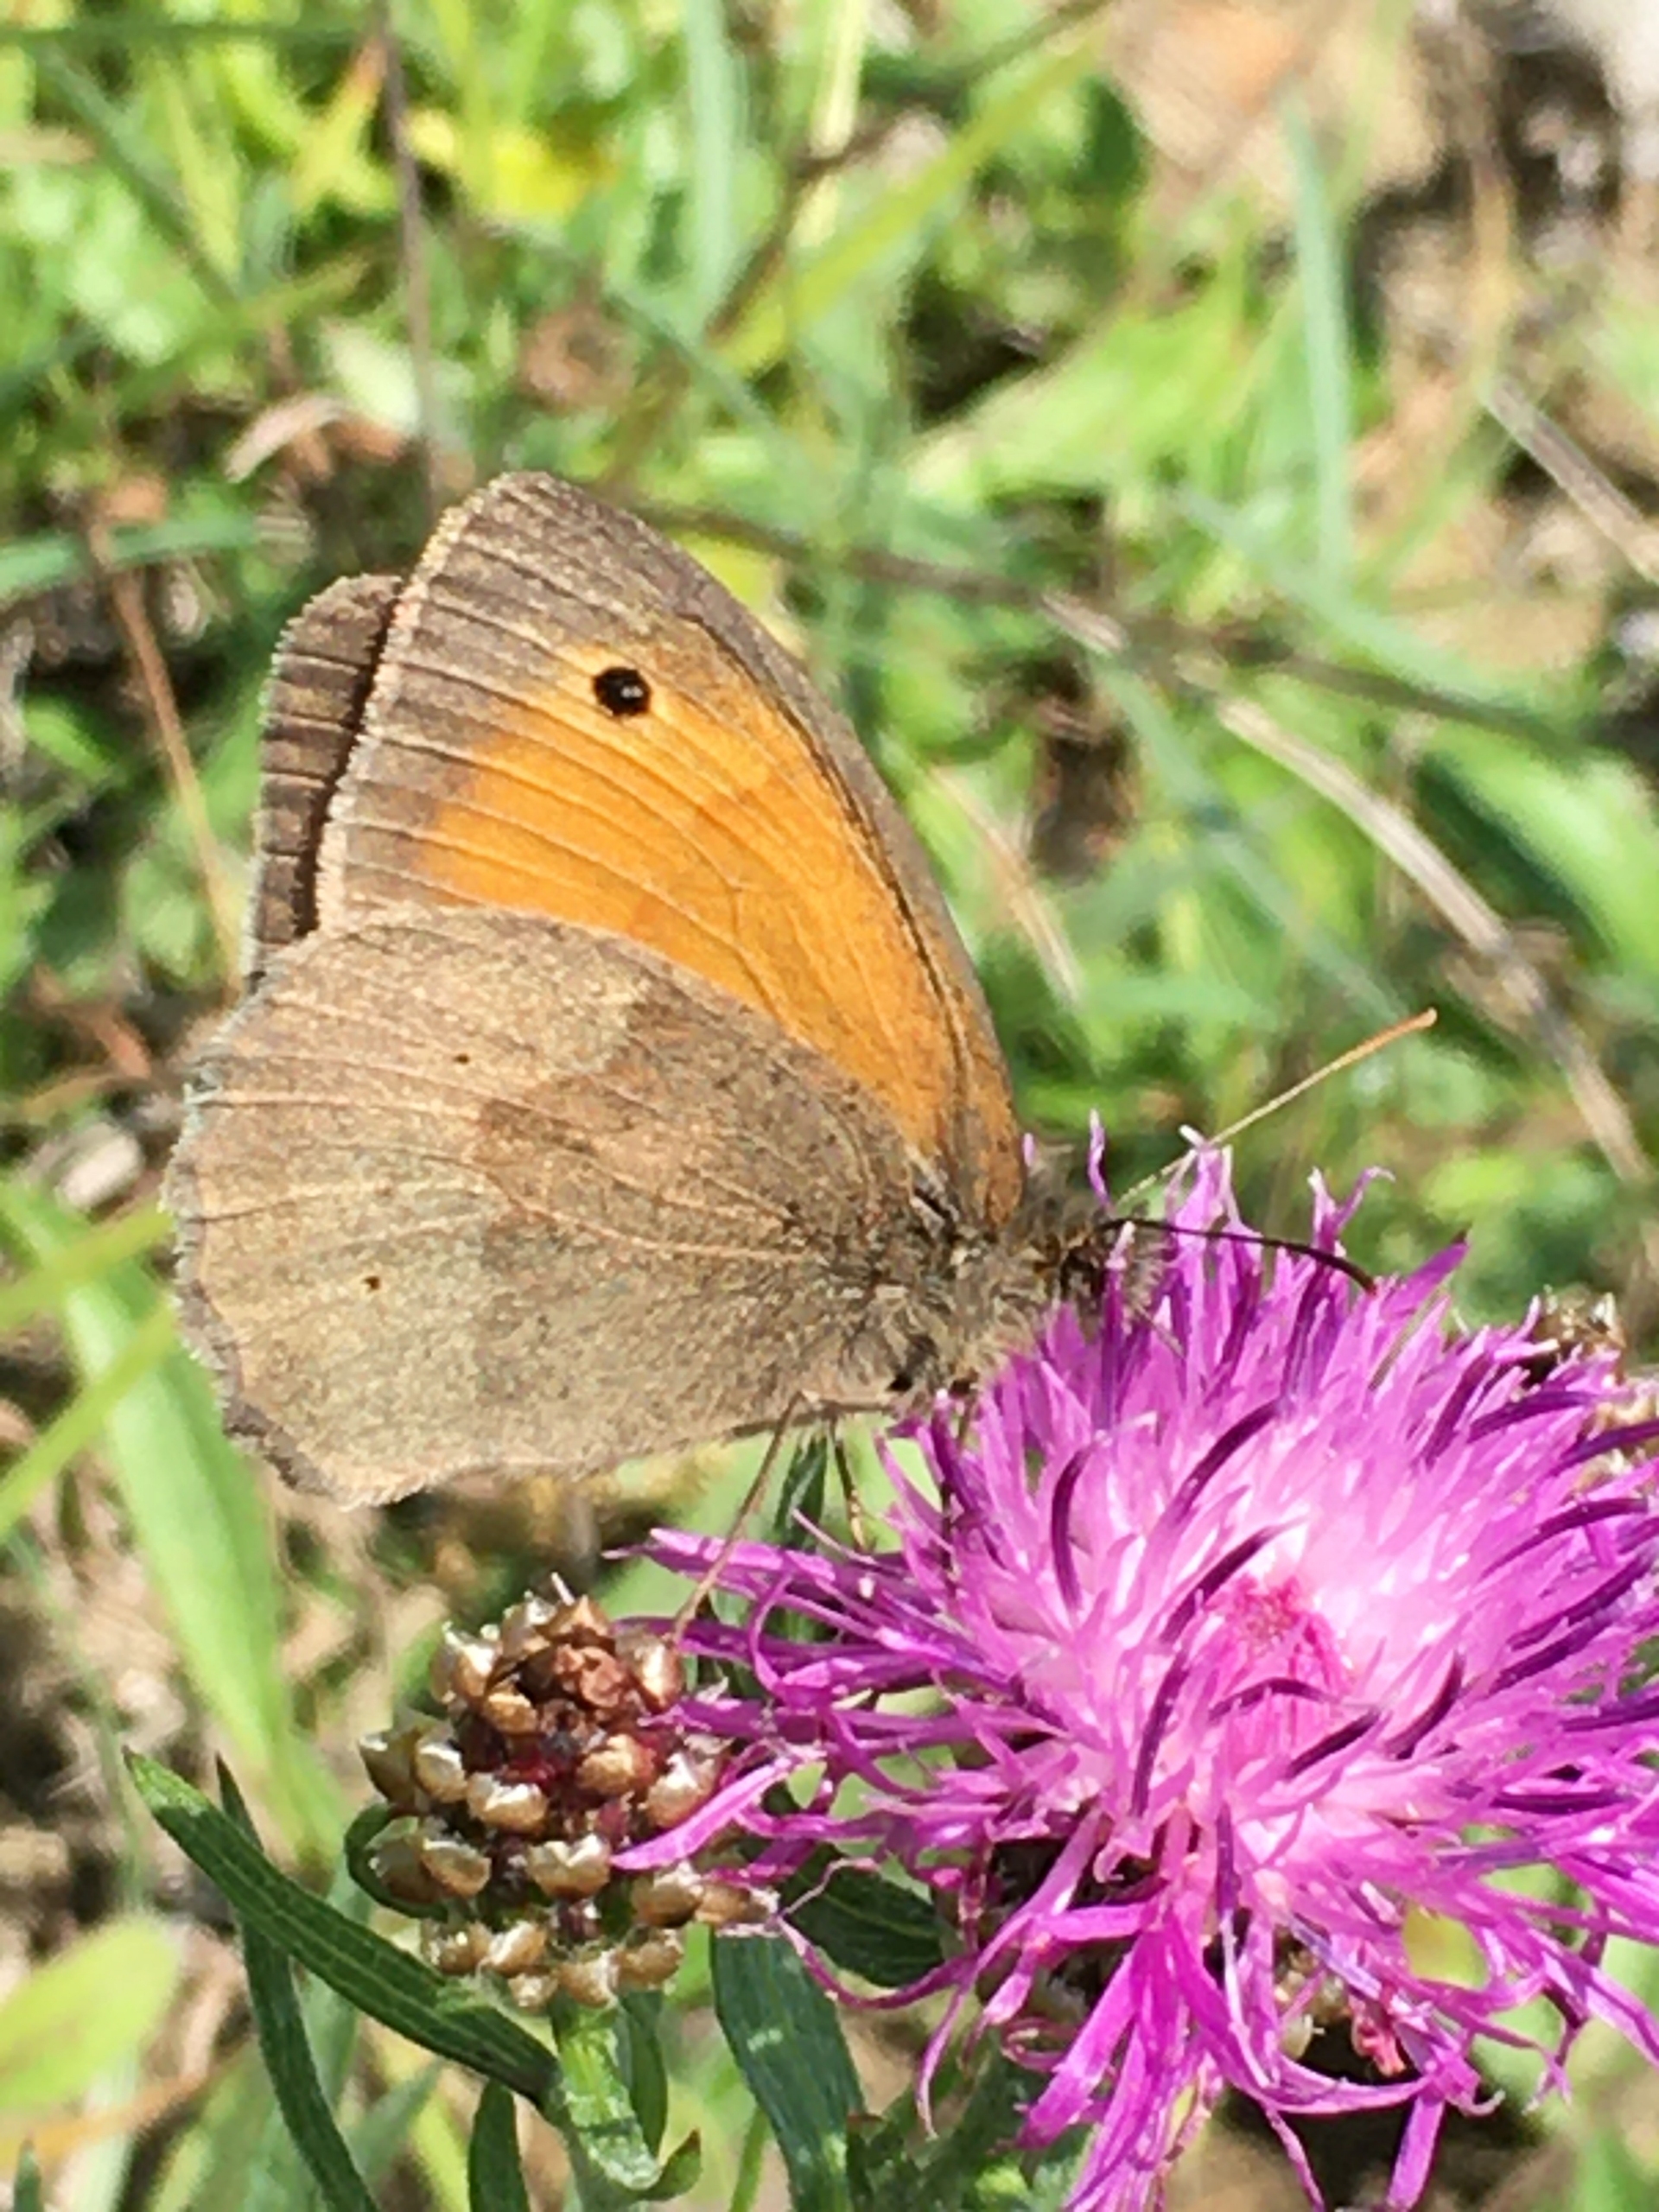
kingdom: Animalia
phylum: Arthropoda
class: Insecta
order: Lepidoptera
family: Nymphalidae
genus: Maniola
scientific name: Maniola jurtina
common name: Græsrandøje
